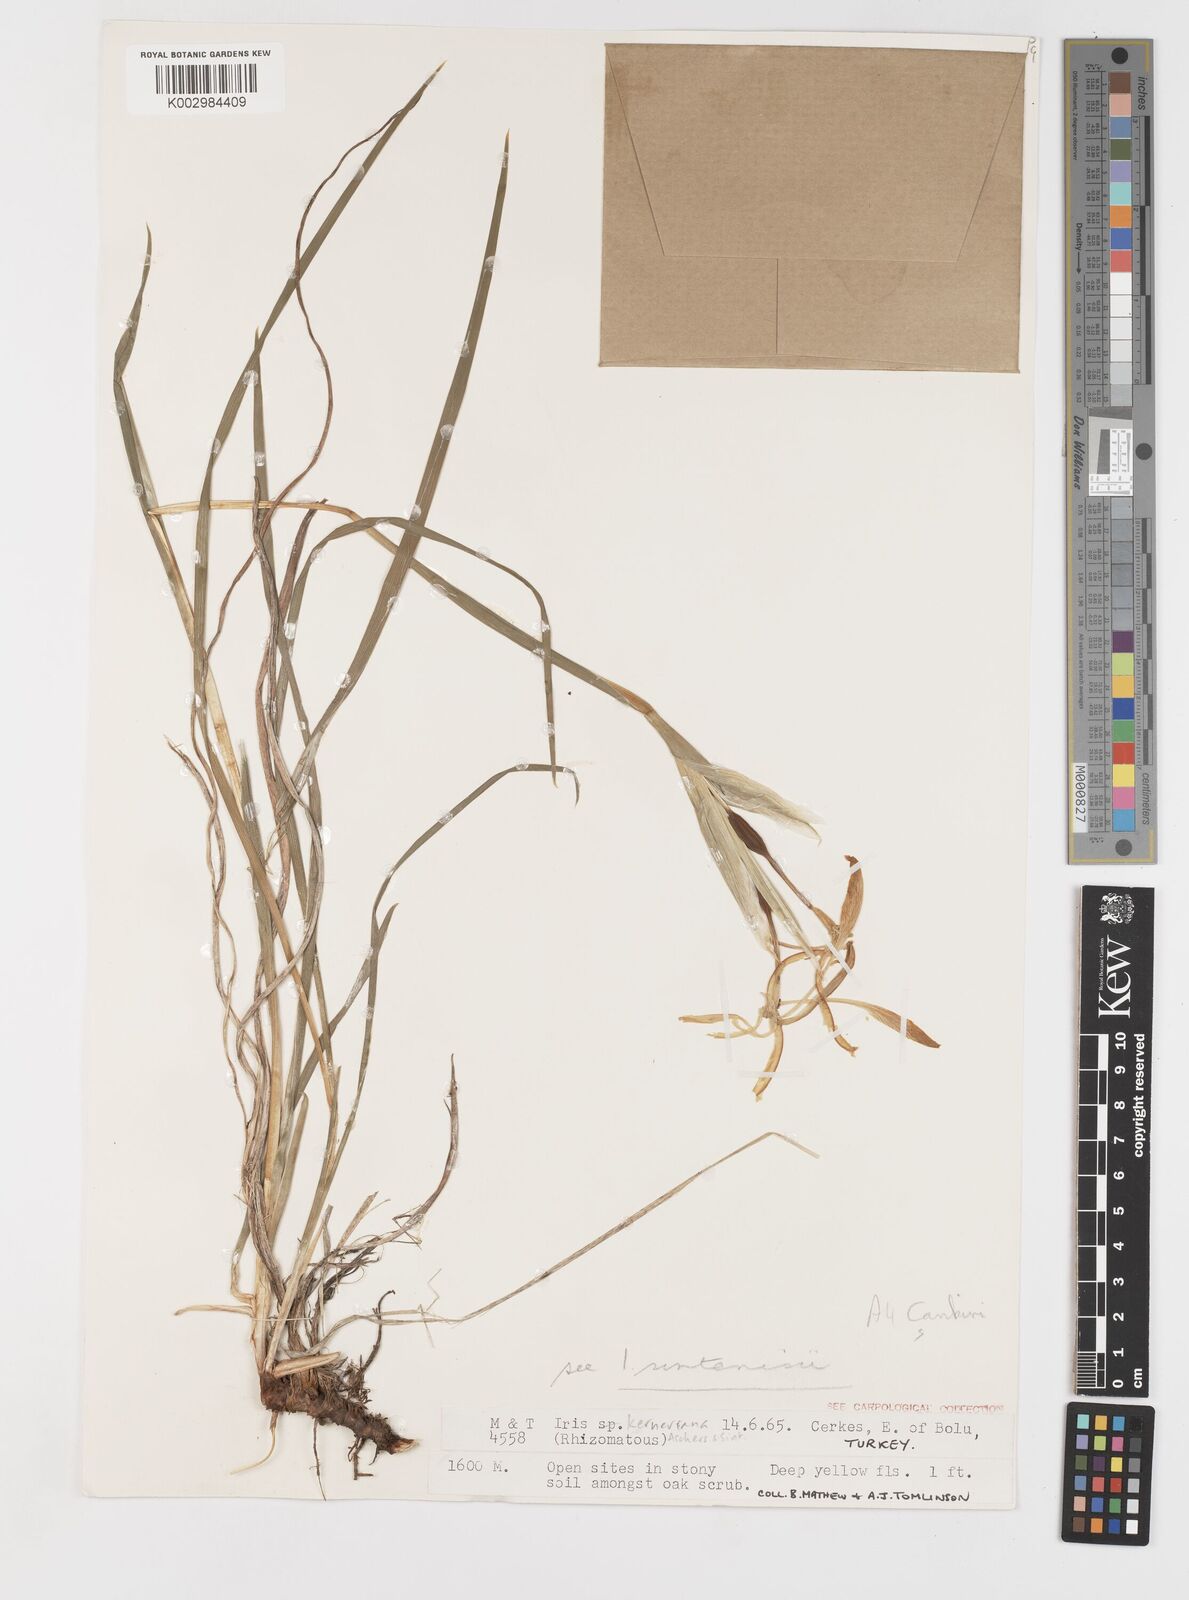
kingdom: Plantae
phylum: Tracheophyta
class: Liliopsida
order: Asparagales
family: Iridaceae
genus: Iris
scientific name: Iris haussknechtii
